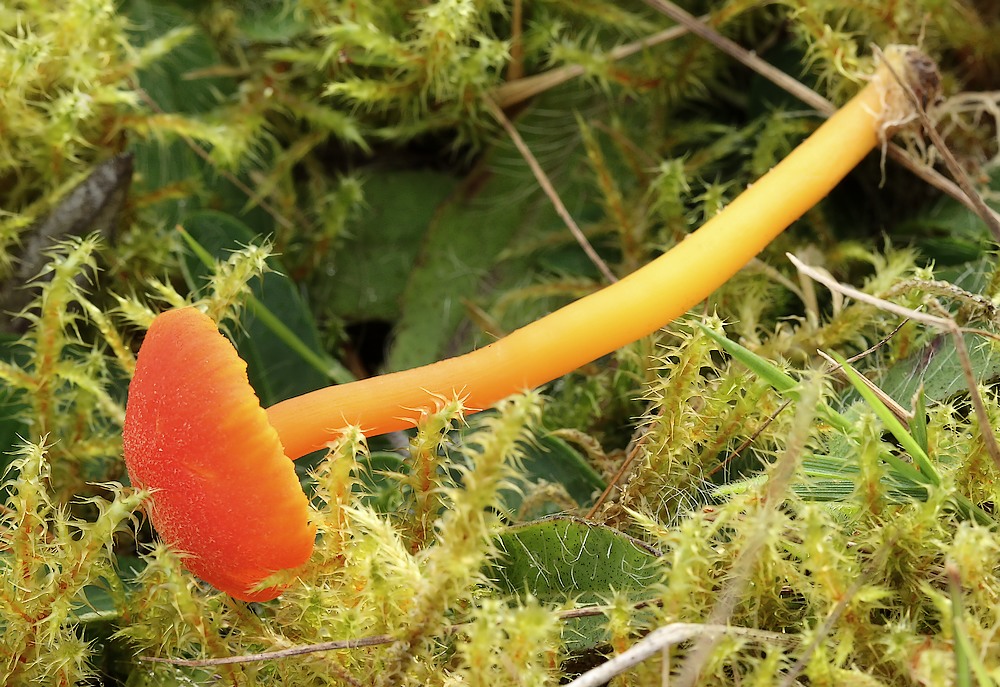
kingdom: Fungi
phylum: Basidiomycota
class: Agaricomycetes
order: Agaricales
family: Hygrophoraceae
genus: Hygrocybe
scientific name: Hygrocybe miniata
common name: mønje-vokshat
